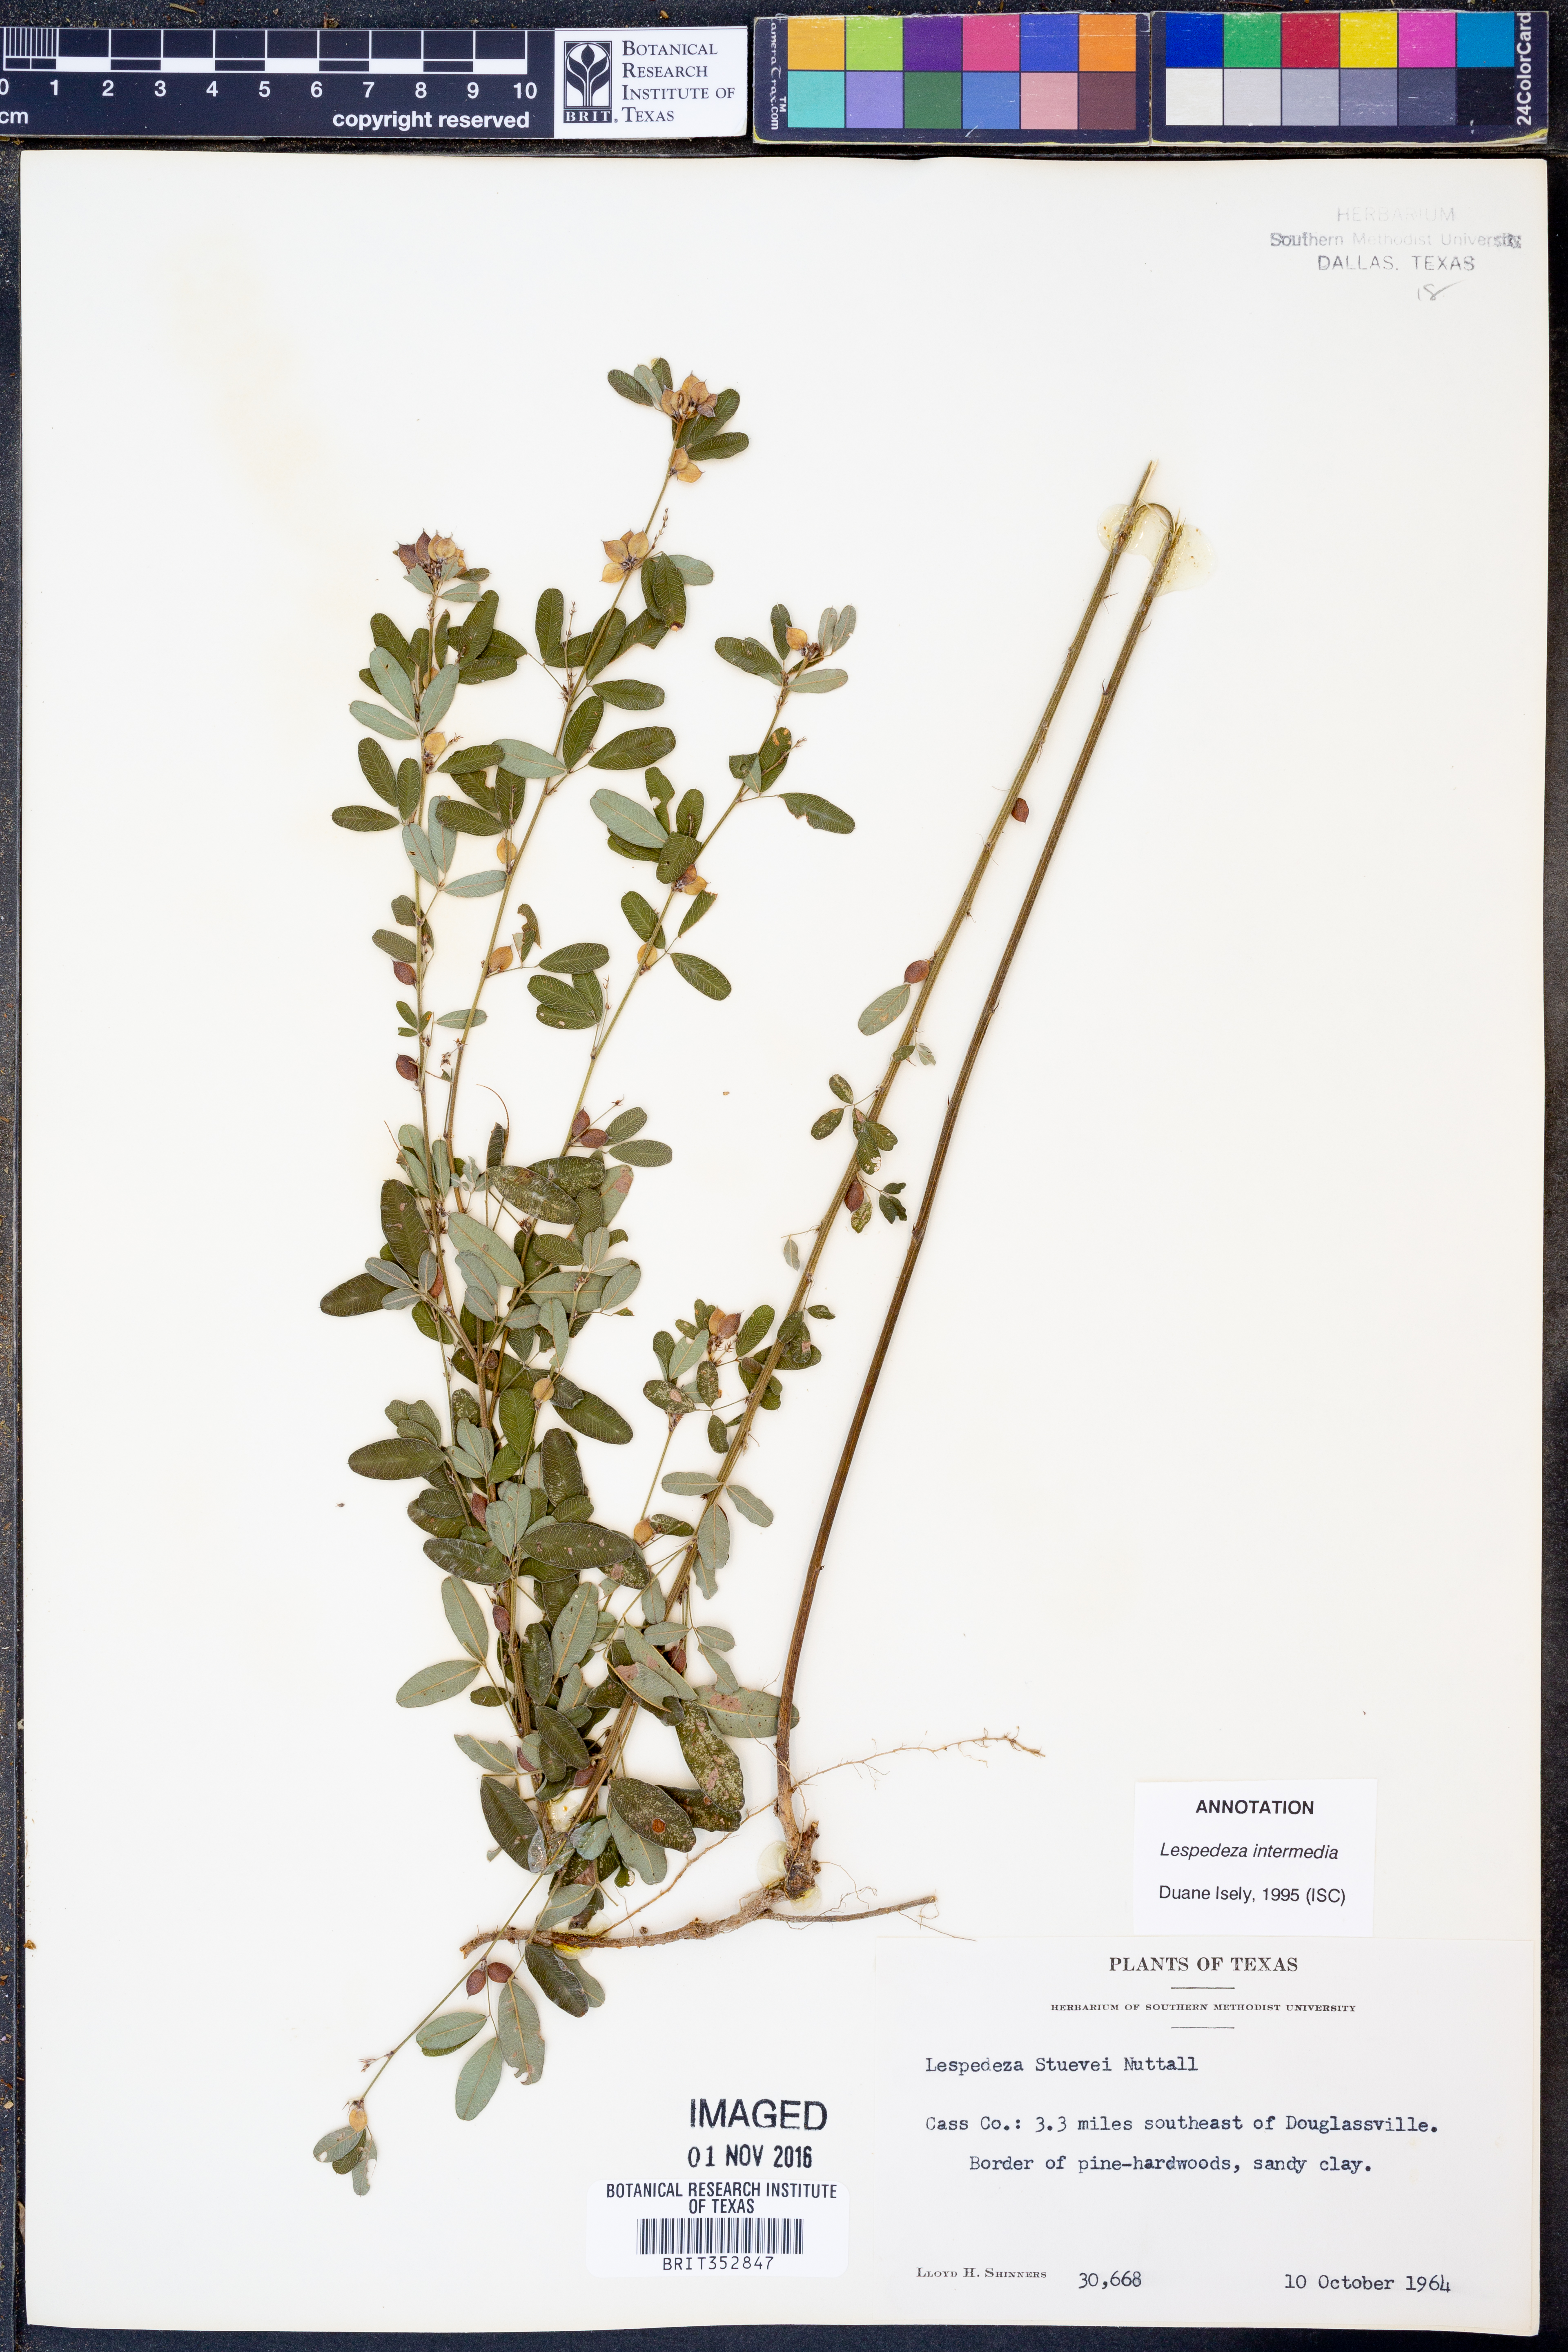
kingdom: Plantae
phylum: Tracheophyta
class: Magnoliopsida
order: Fabales
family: Fabaceae
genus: Lespedeza
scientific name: Lespedeza
